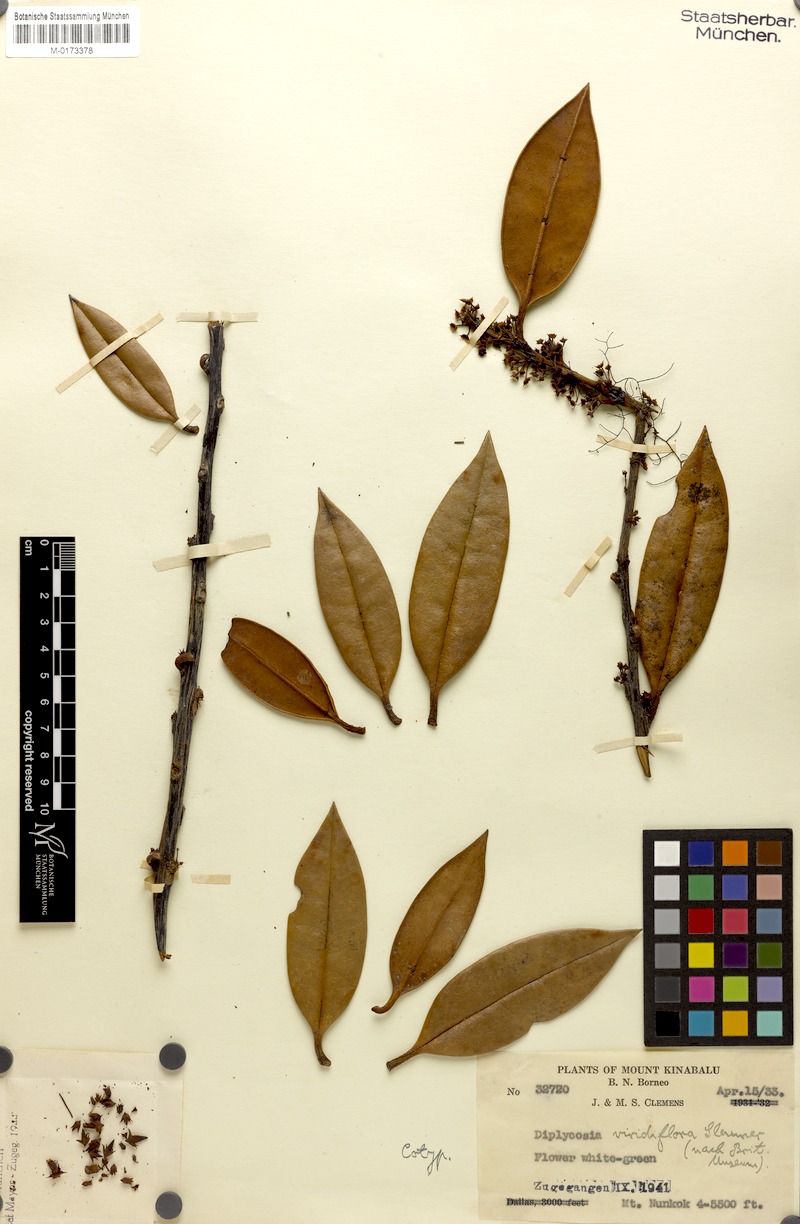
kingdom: Plantae
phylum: Tracheophyta
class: Magnoliopsida
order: Ericales
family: Ericaceae
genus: Gaultheria
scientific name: Gaultheria sulcinervia
